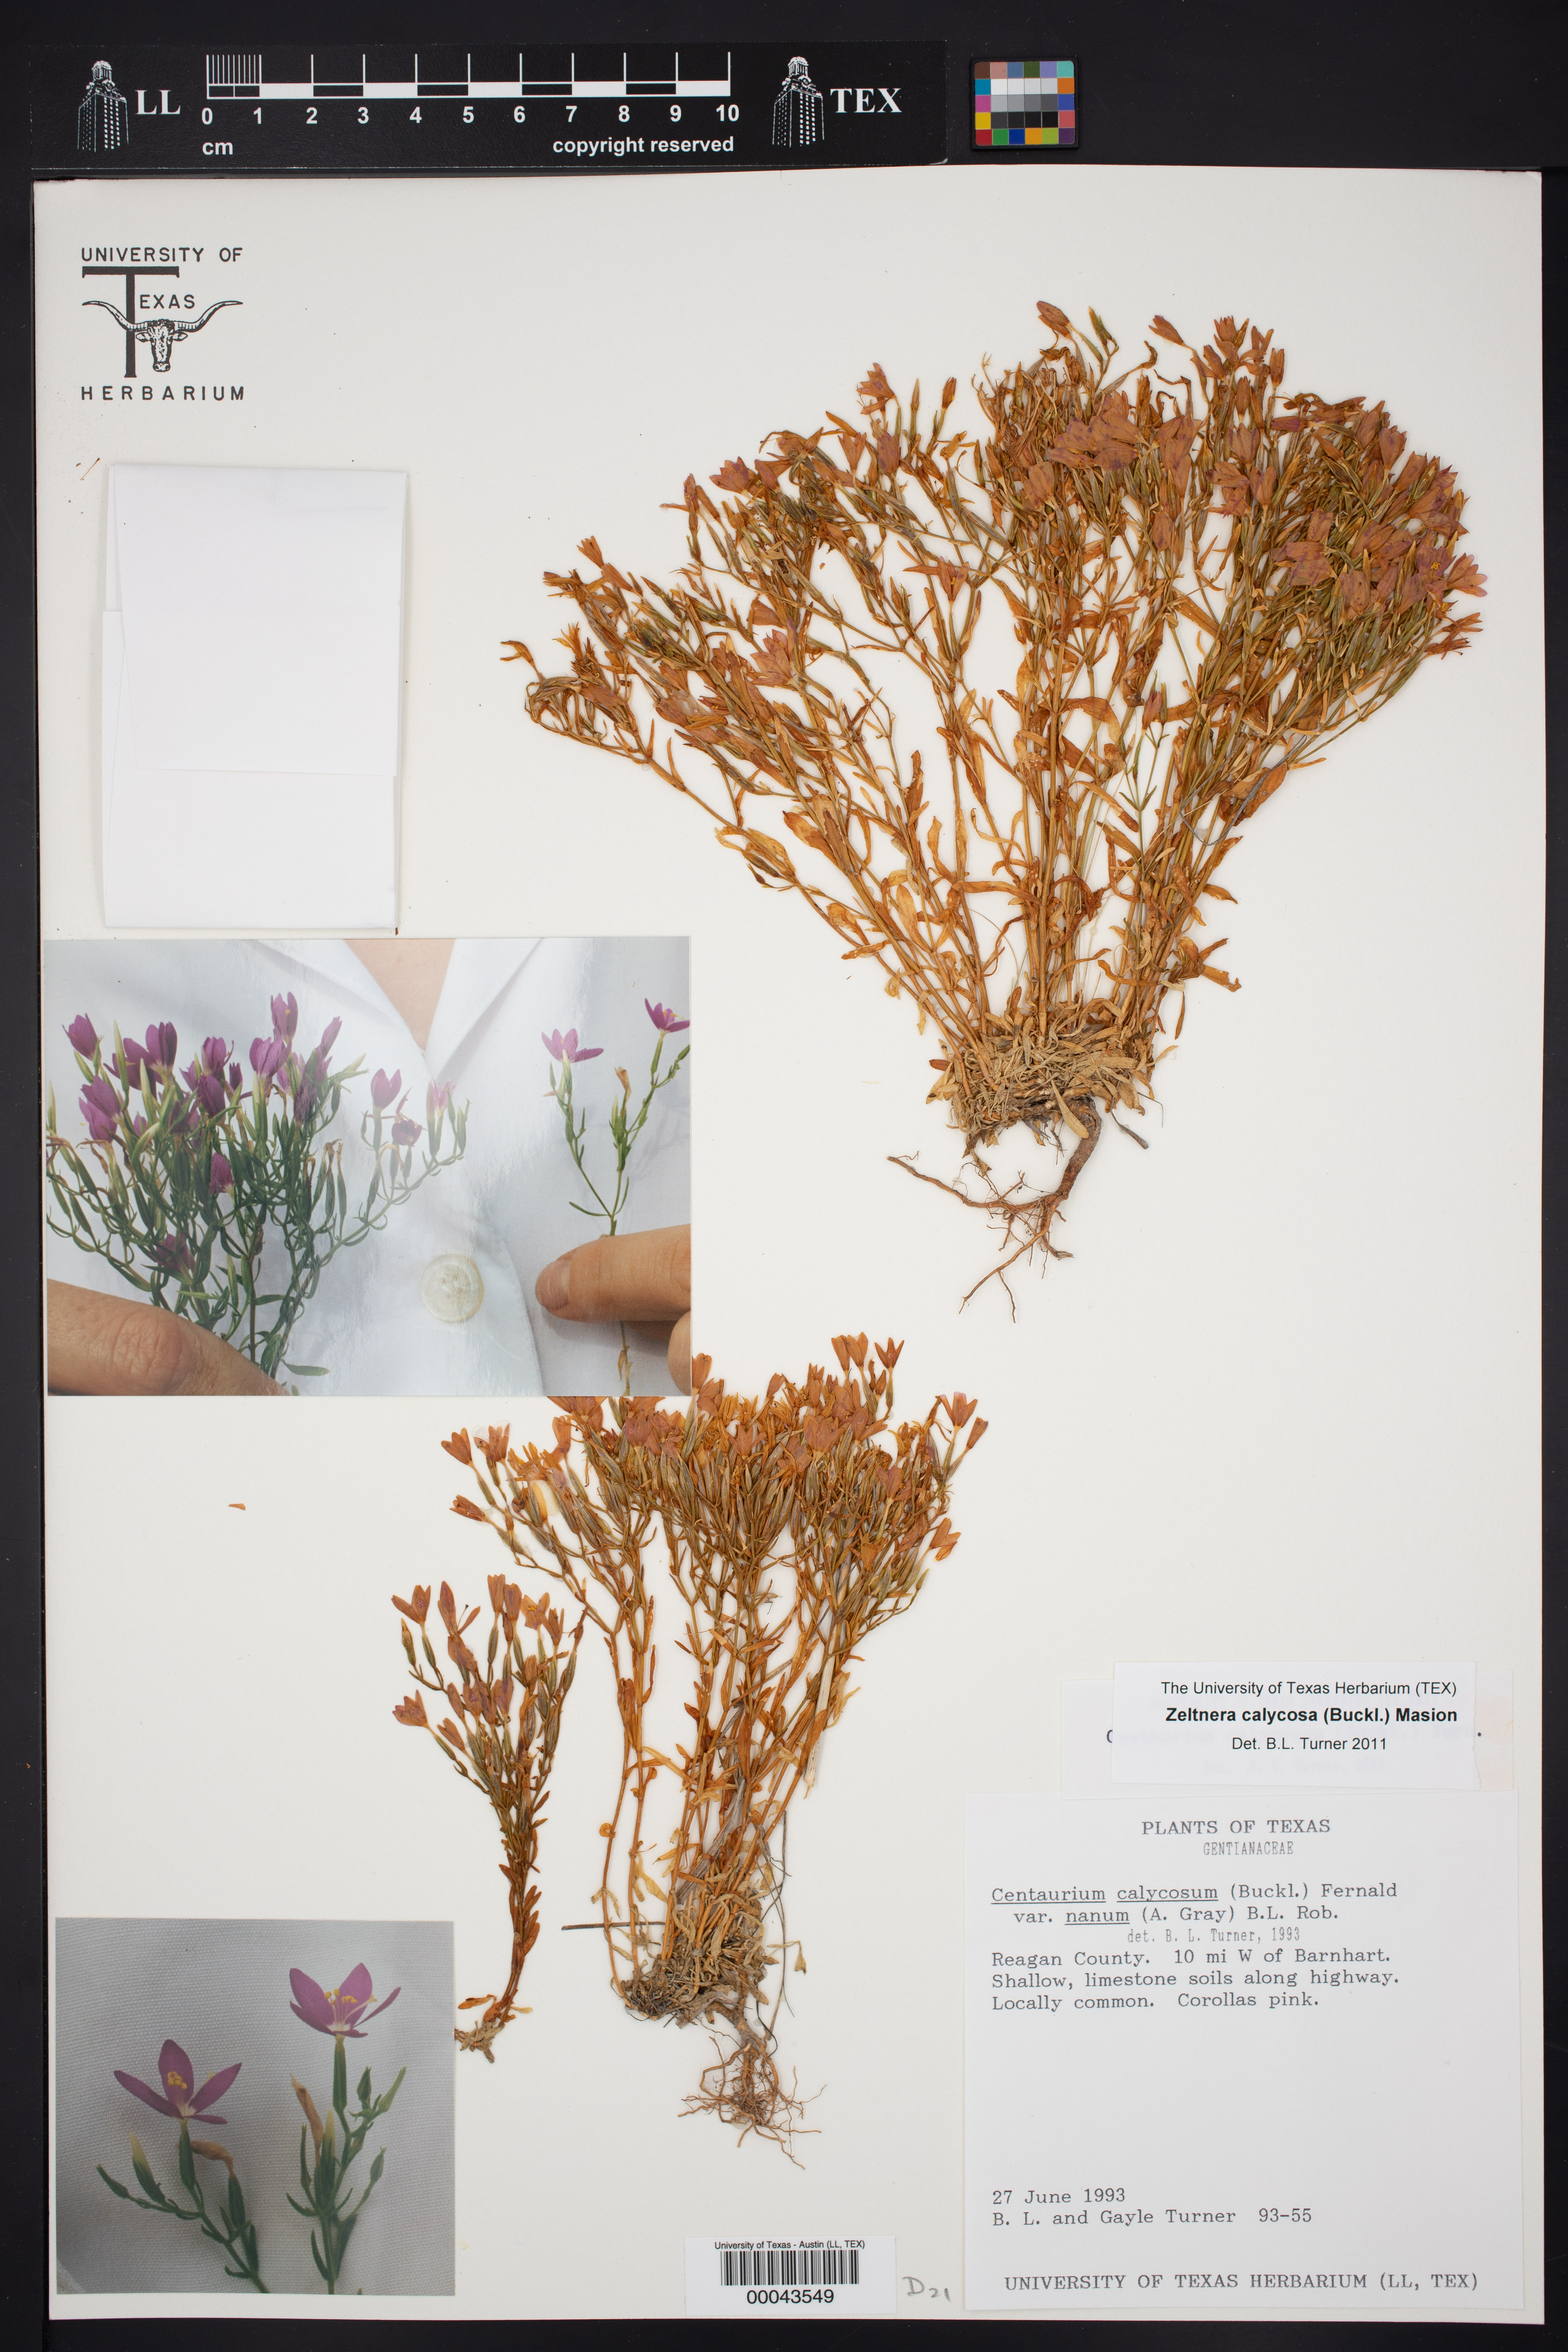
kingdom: Plantae
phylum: Tracheophyta
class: Magnoliopsida
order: Gentianales
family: Gentianaceae
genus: Zeltnera
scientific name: Zeltnera calycosa
